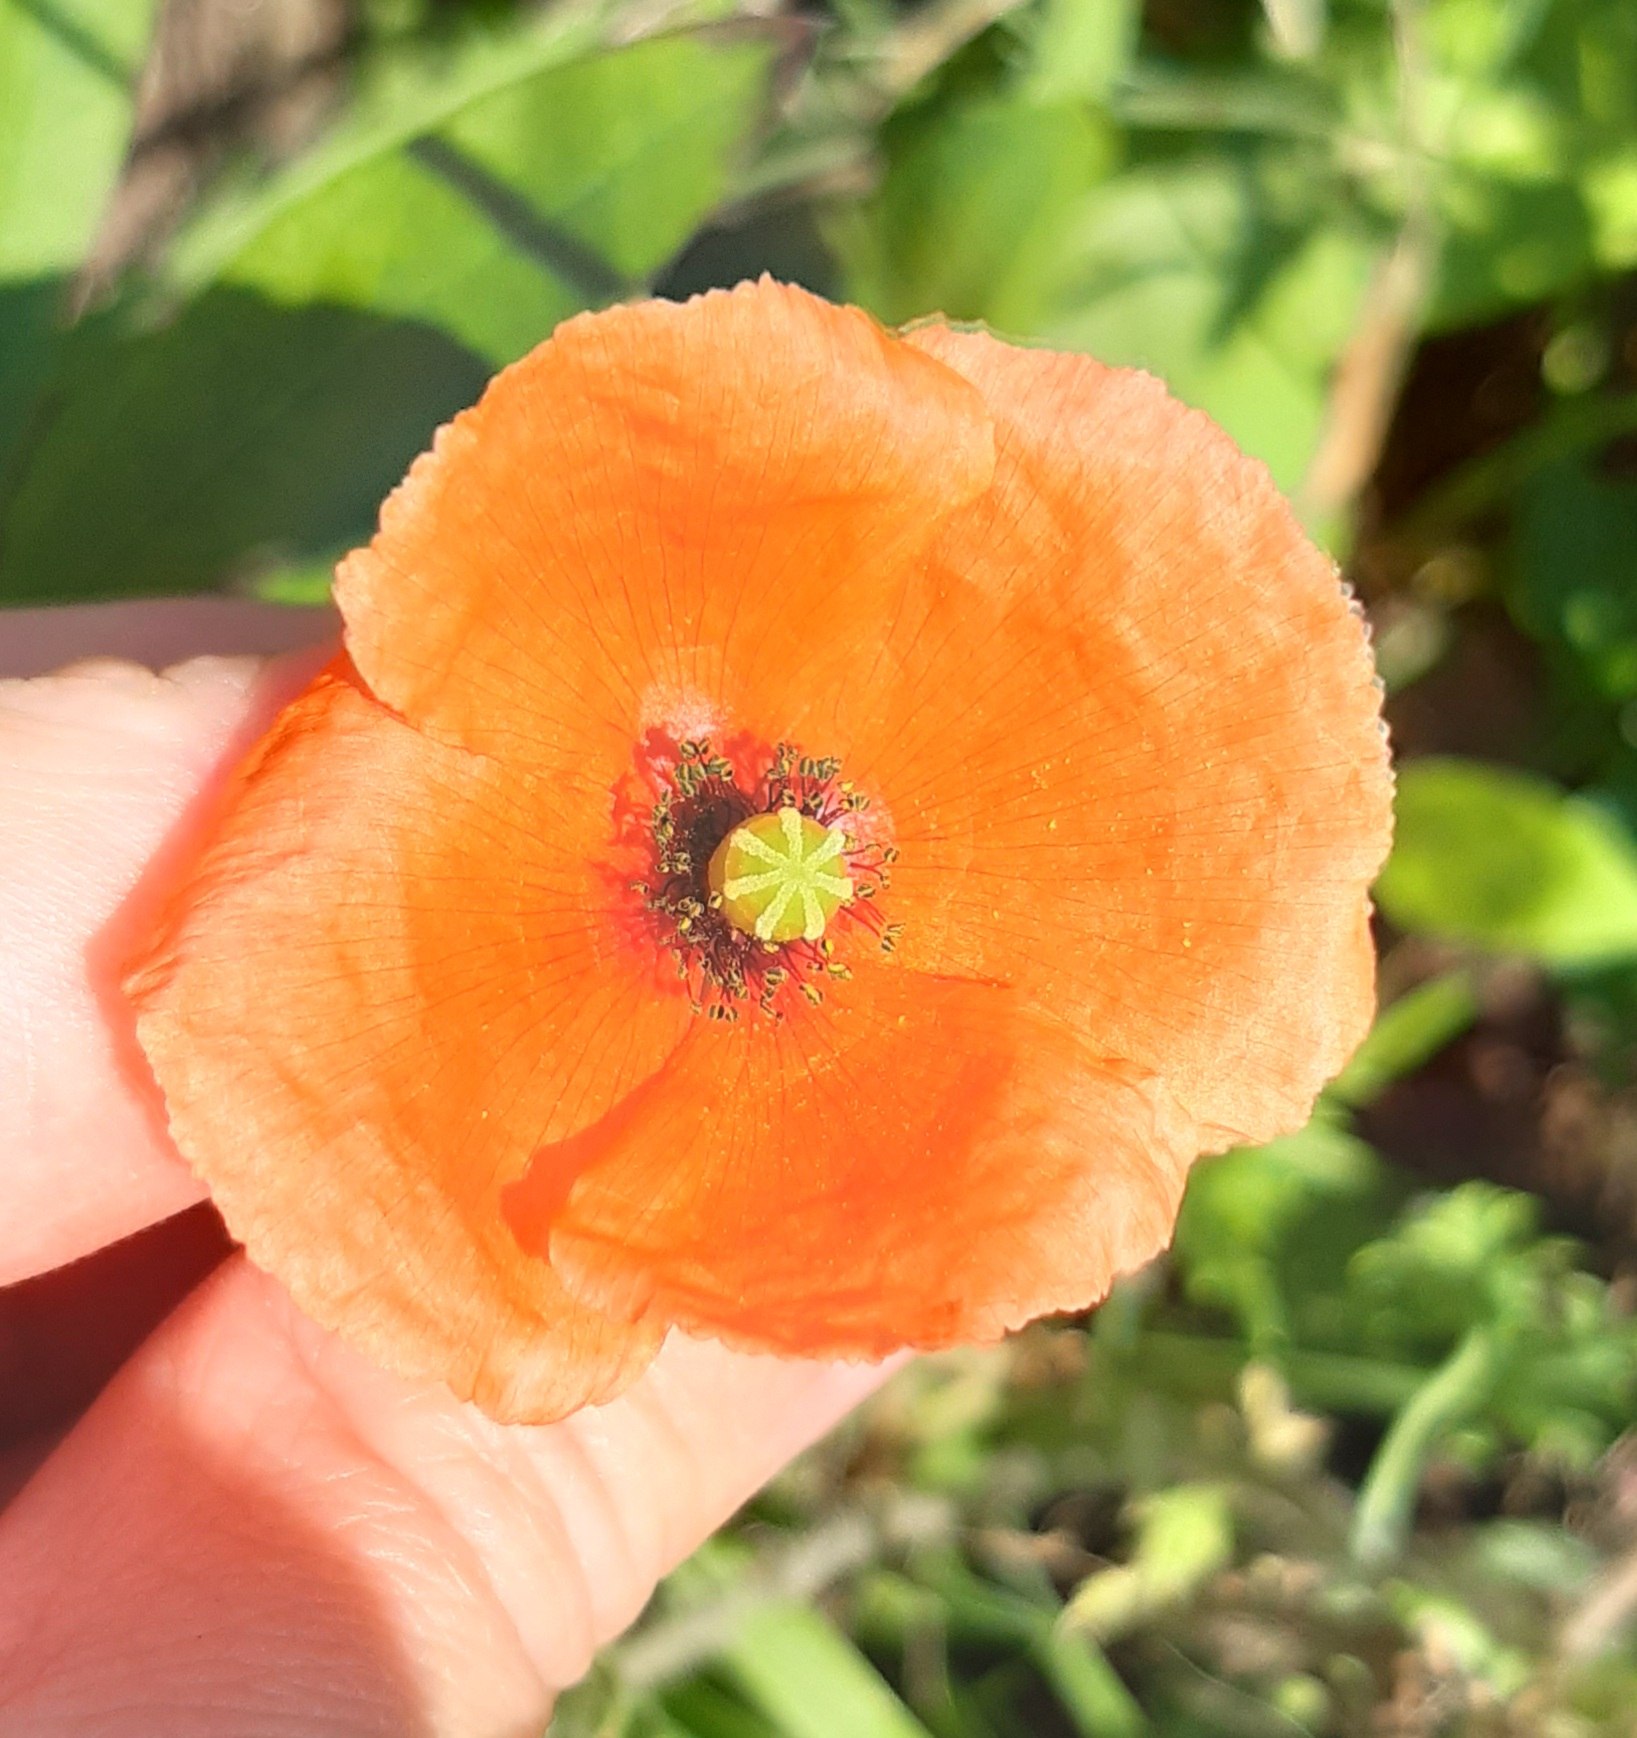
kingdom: Plantae
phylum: Tracheophyta
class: Magnoliopsida
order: Ranunculales
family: Papaveraceae
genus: Papaver
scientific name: Papaver dubium
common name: Gærde-valmue
